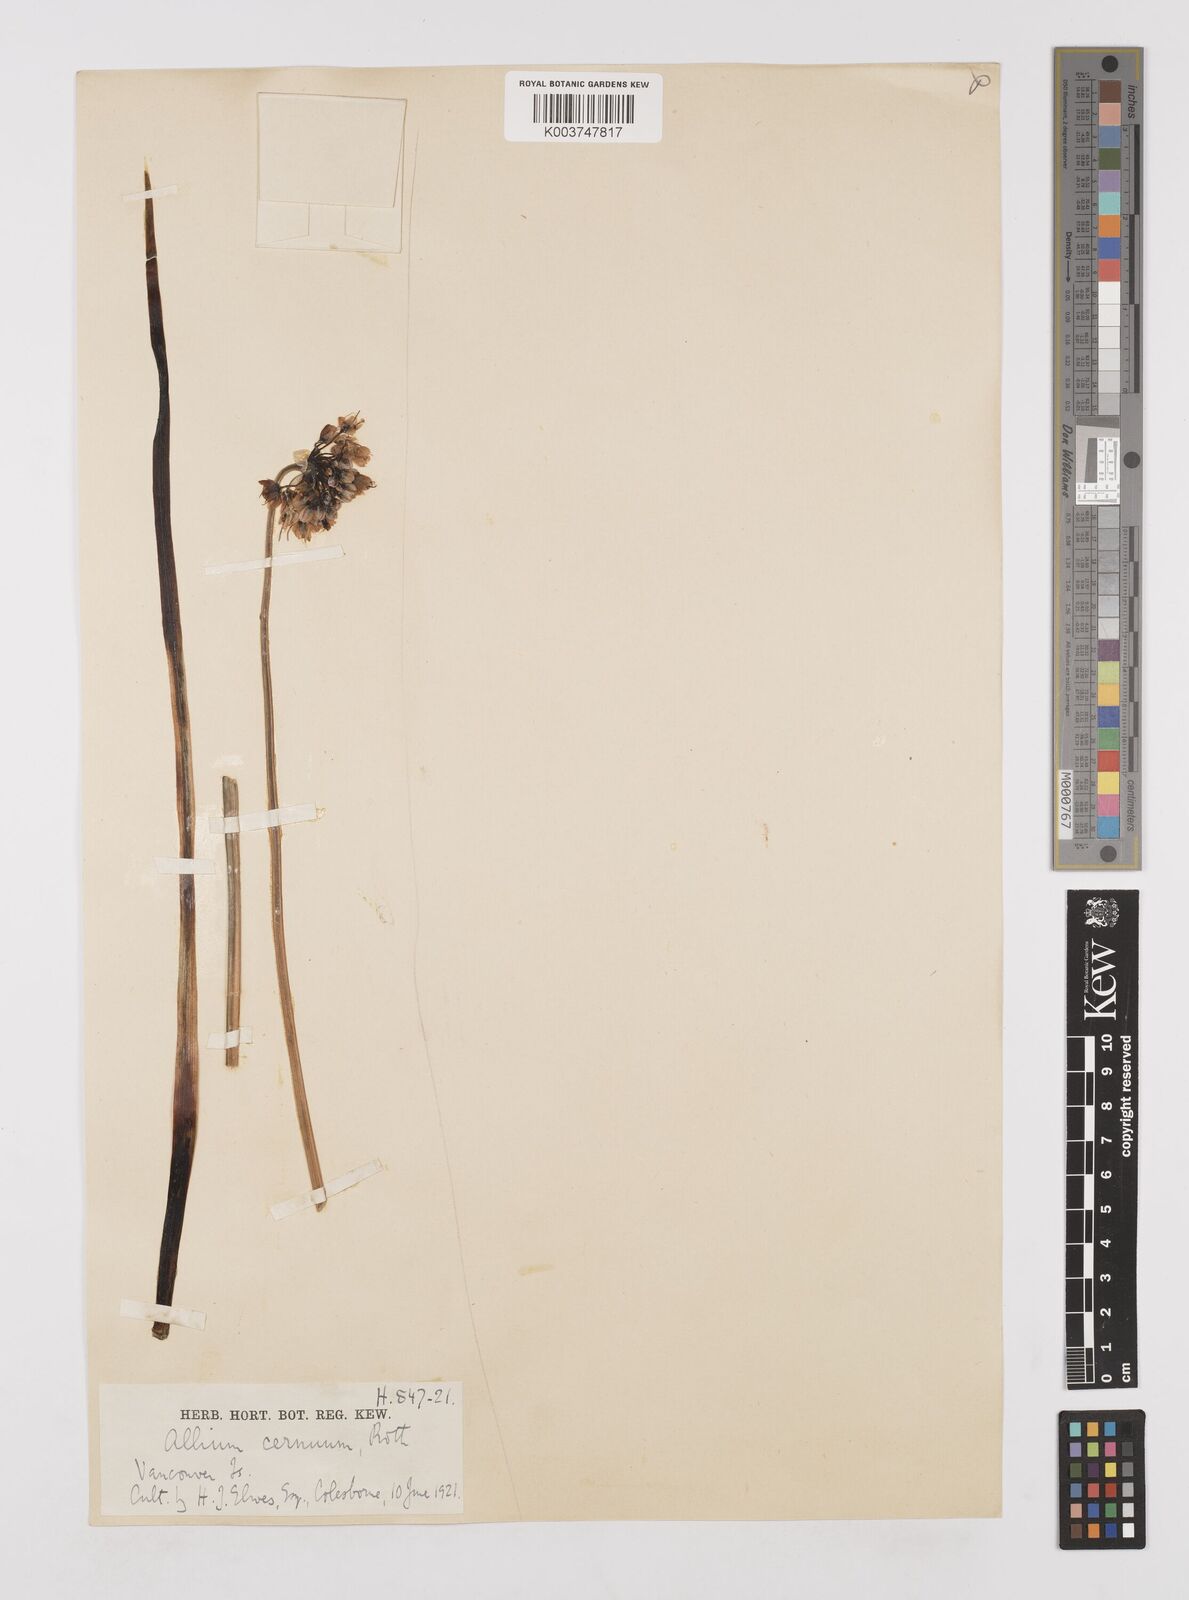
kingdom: Plantae
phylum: Tracheophyta
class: Liliopsida
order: Asparagales
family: Amaryllidaceae
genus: Allium
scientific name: Allium cernuum
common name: Nodding onion
